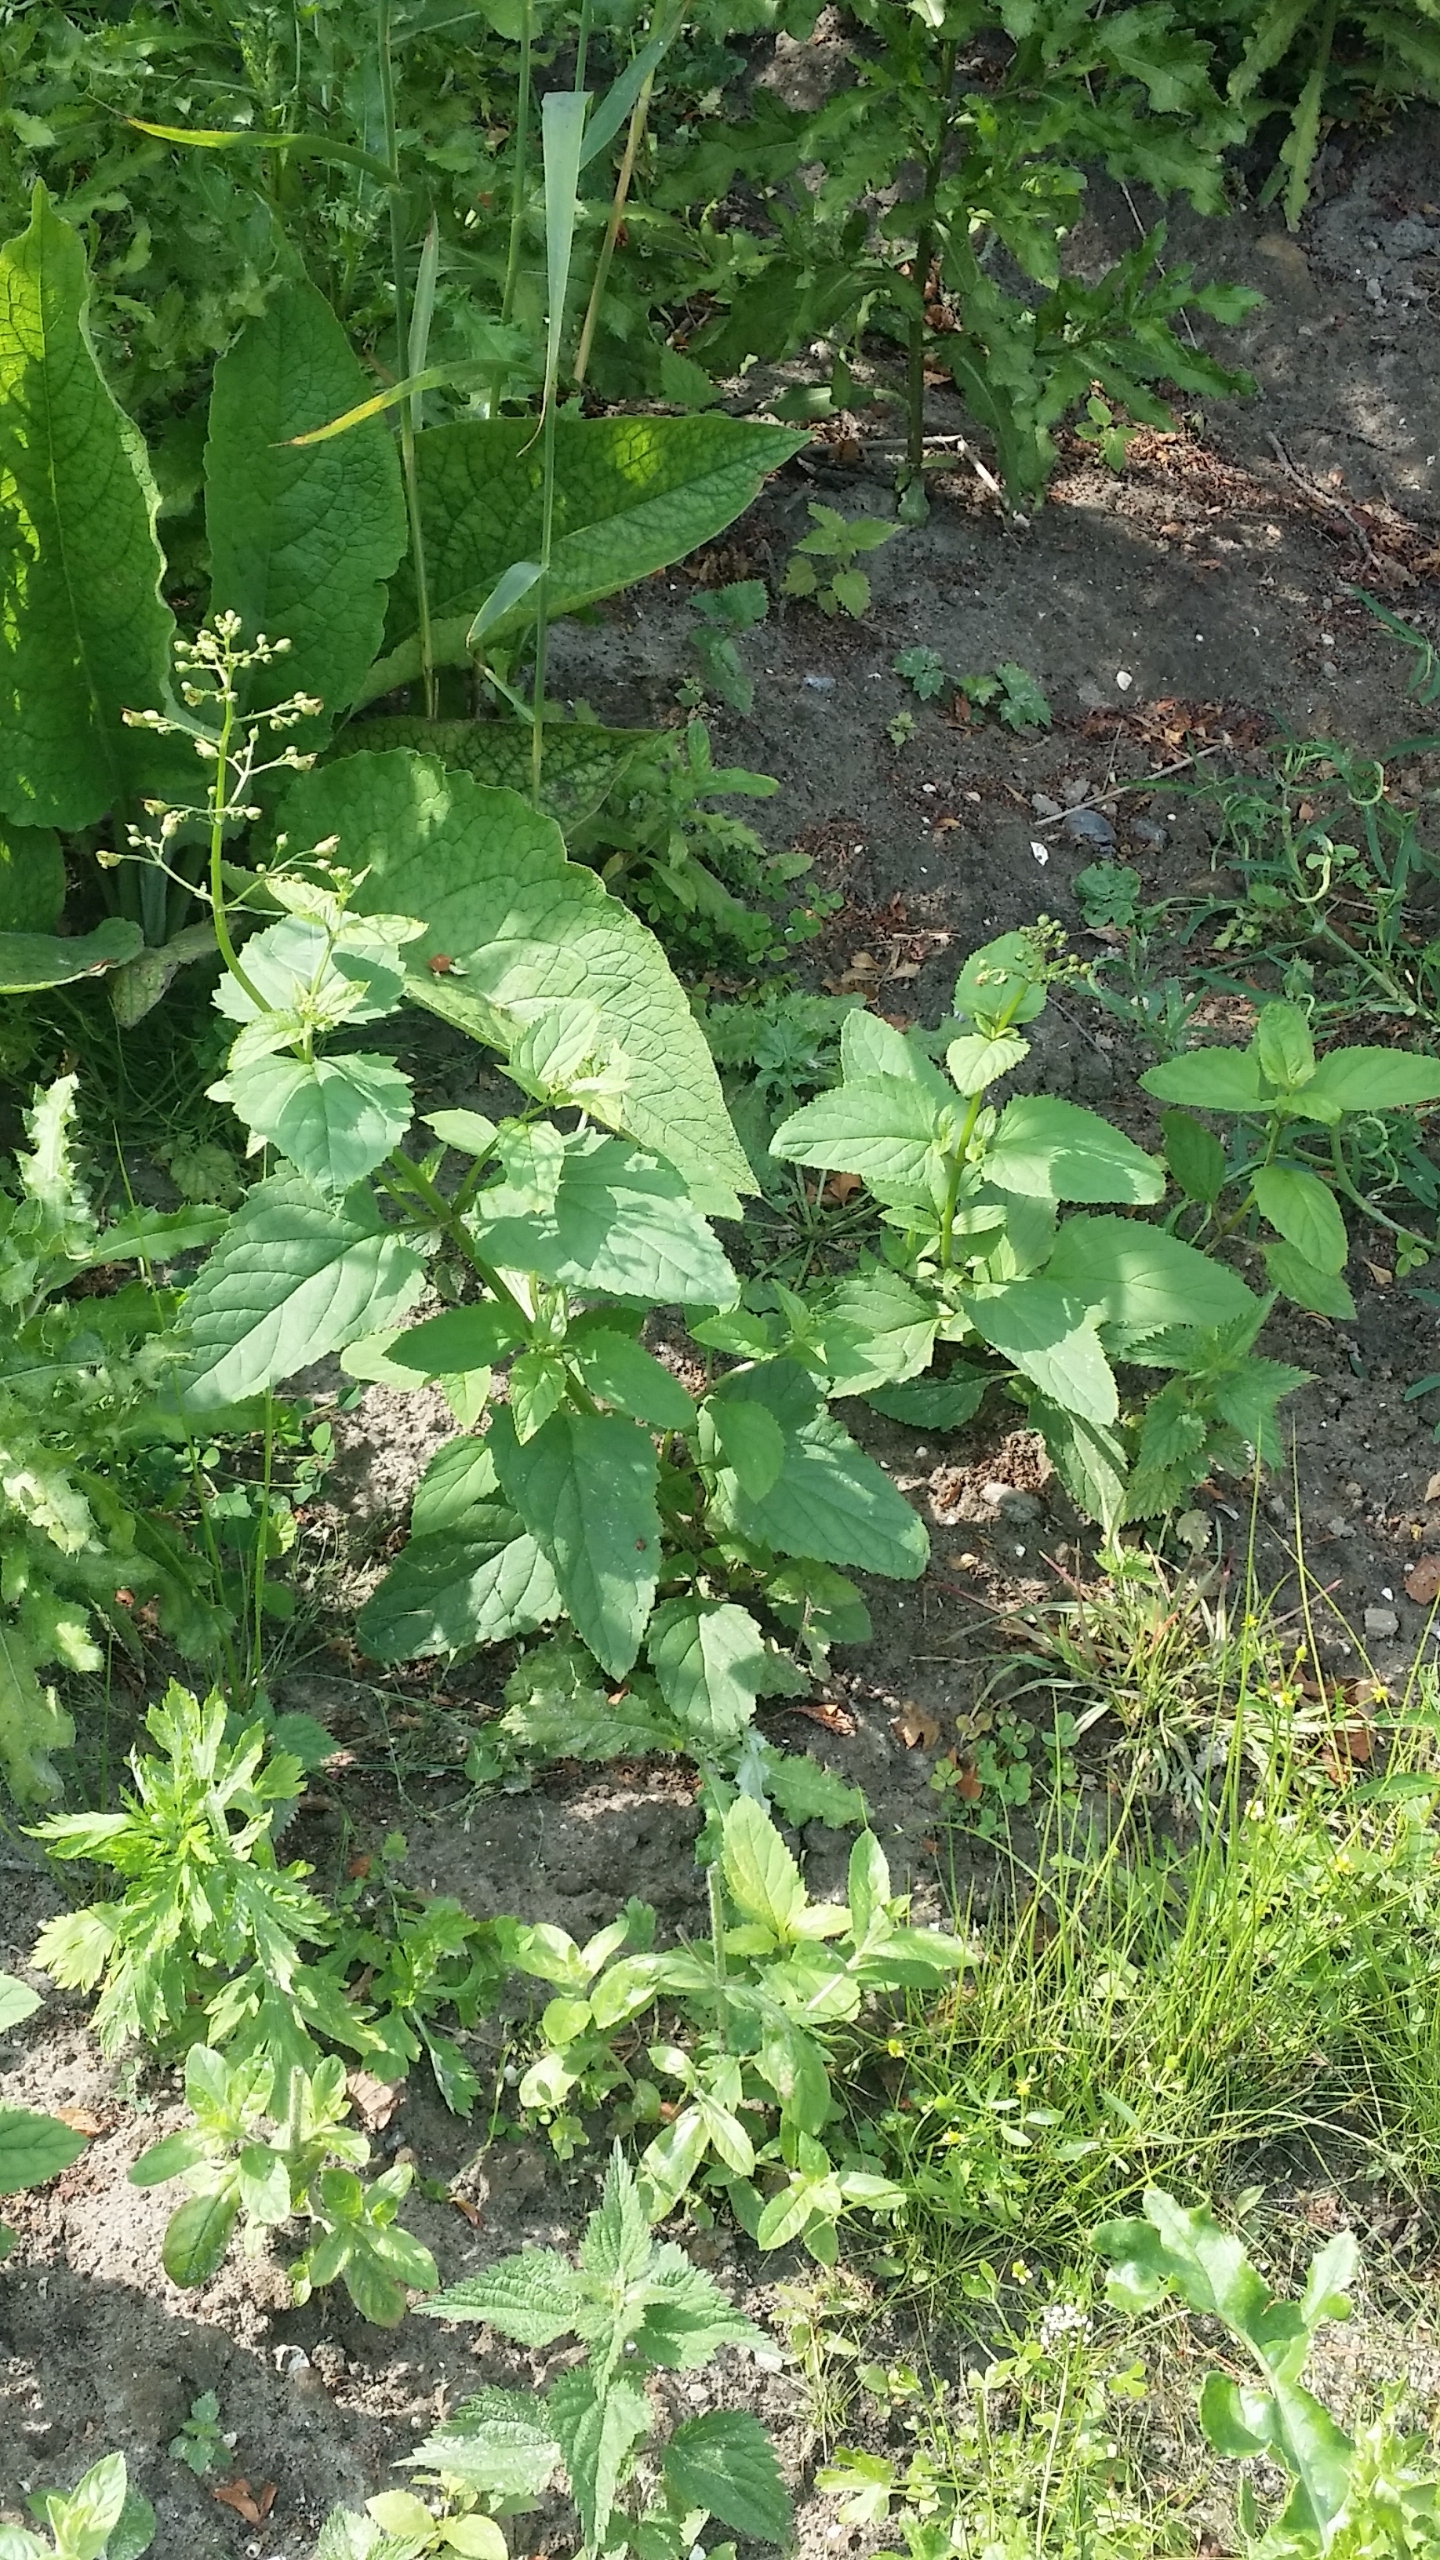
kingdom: Plantae
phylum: Tracheophyta
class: Magnoliopsida
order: Lamiales
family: Scrophulariaceae
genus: Scrophularia
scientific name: Scrophularia nodosa
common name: Knoldet brunrod
